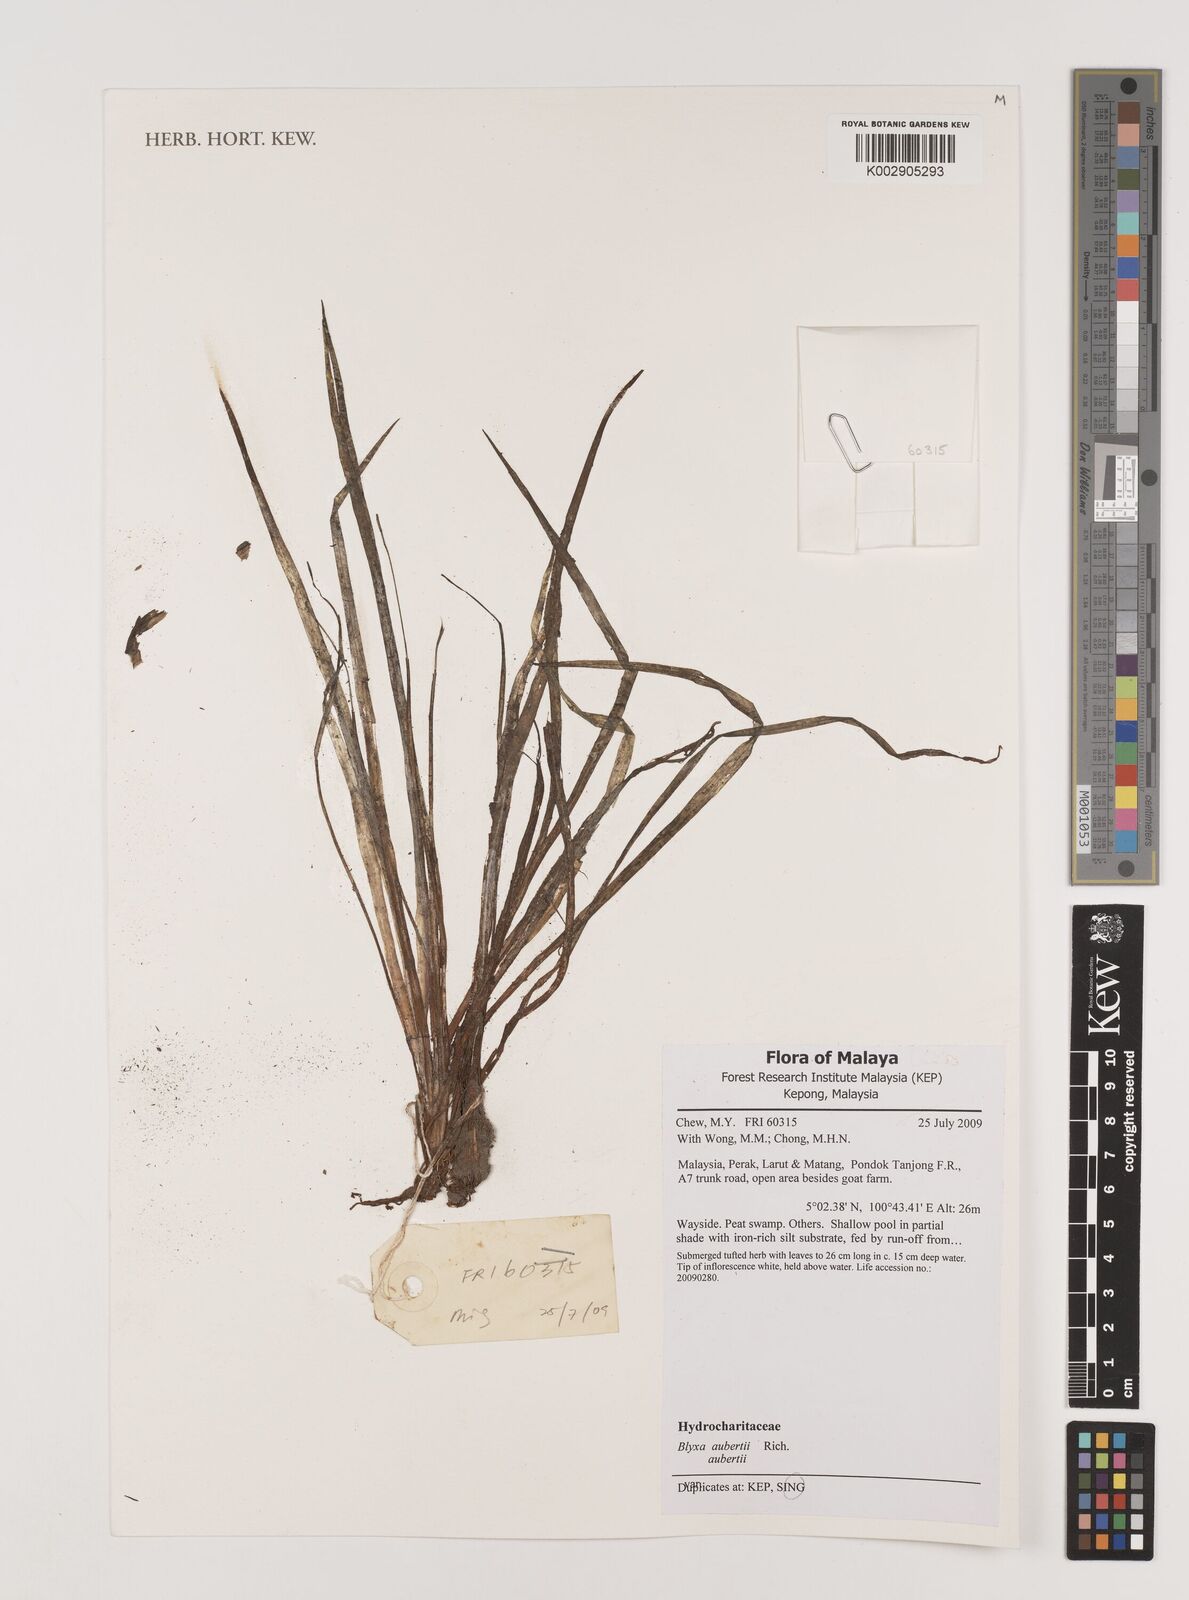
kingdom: Plantae
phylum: Tracheophyta
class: Liliopsida
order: Alismatales
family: Hydrocharitaceae
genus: Blyxa
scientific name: Blyxa aubertii
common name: Roundfruit blyxa
